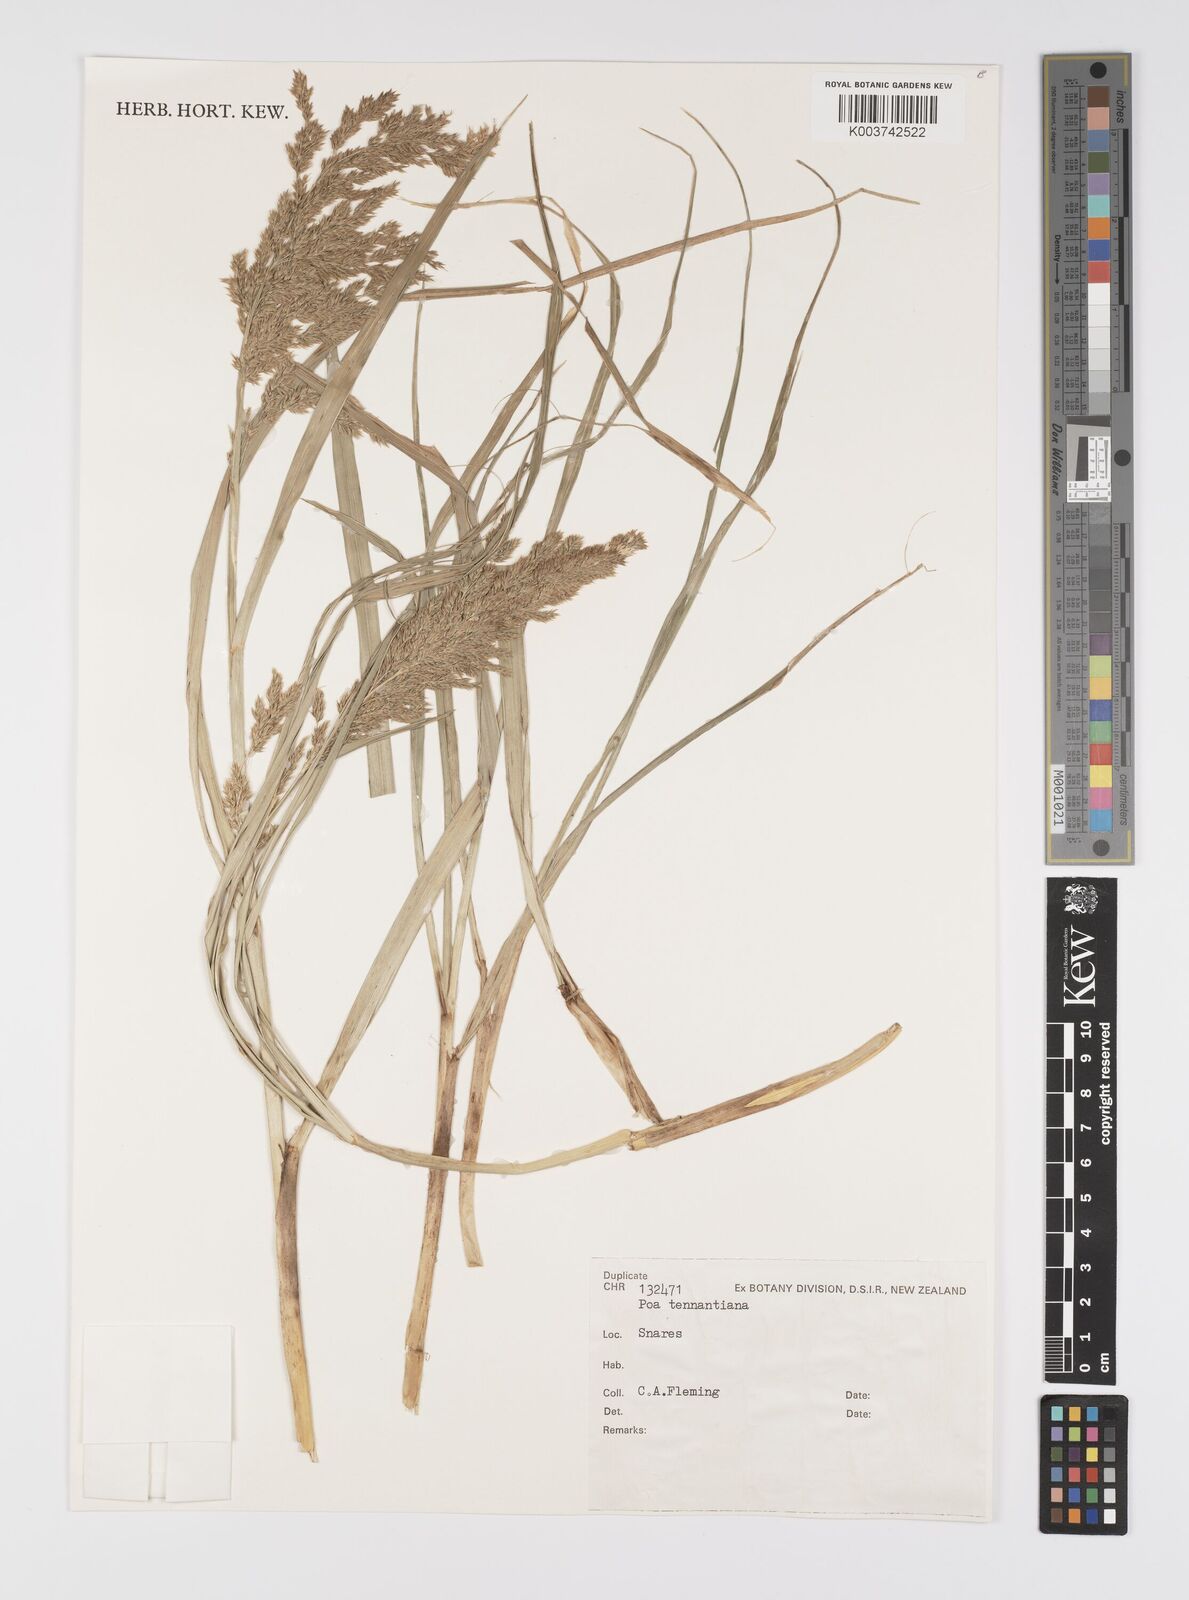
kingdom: Plantae
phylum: Tracheophyta
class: Liliopsida
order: Poales
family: Poaceae
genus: Poa
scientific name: Poa tennantiana
